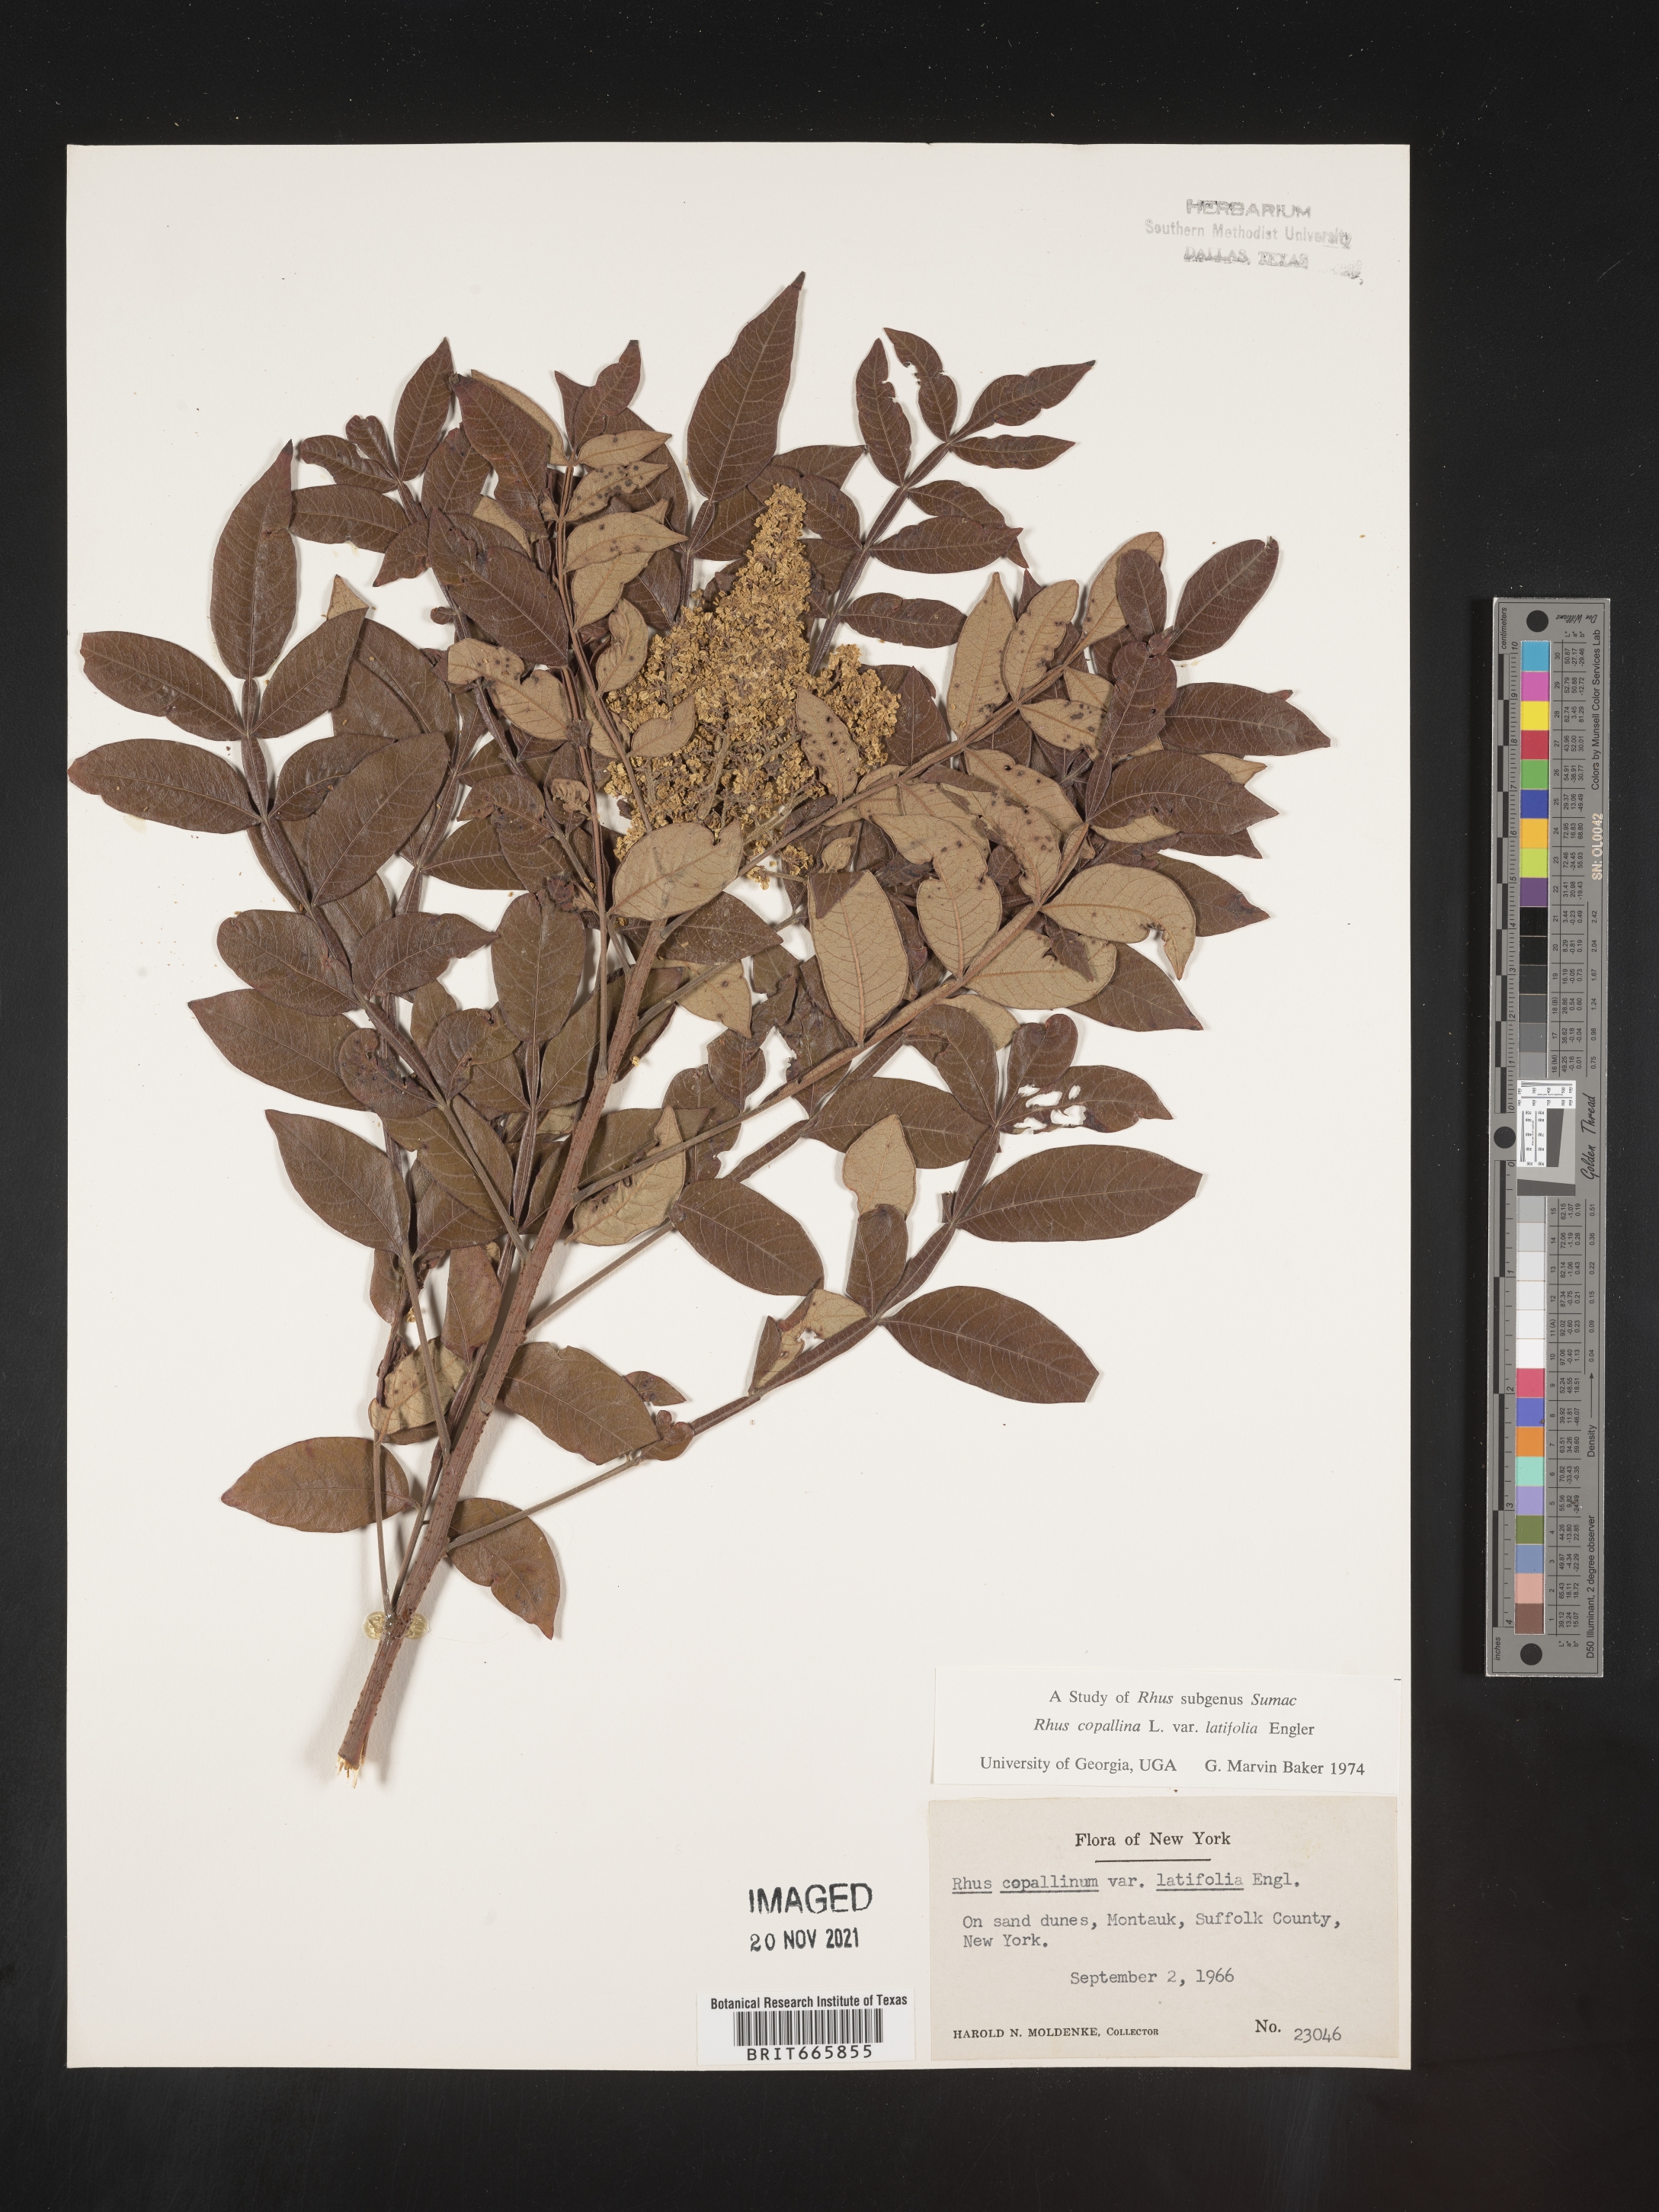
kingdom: Plantae
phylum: Tracheophyta
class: Magnoliopsida
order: Sapindales
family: Anacardiaceae
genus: Rhus
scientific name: Rhus copallina
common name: Shining sumac
